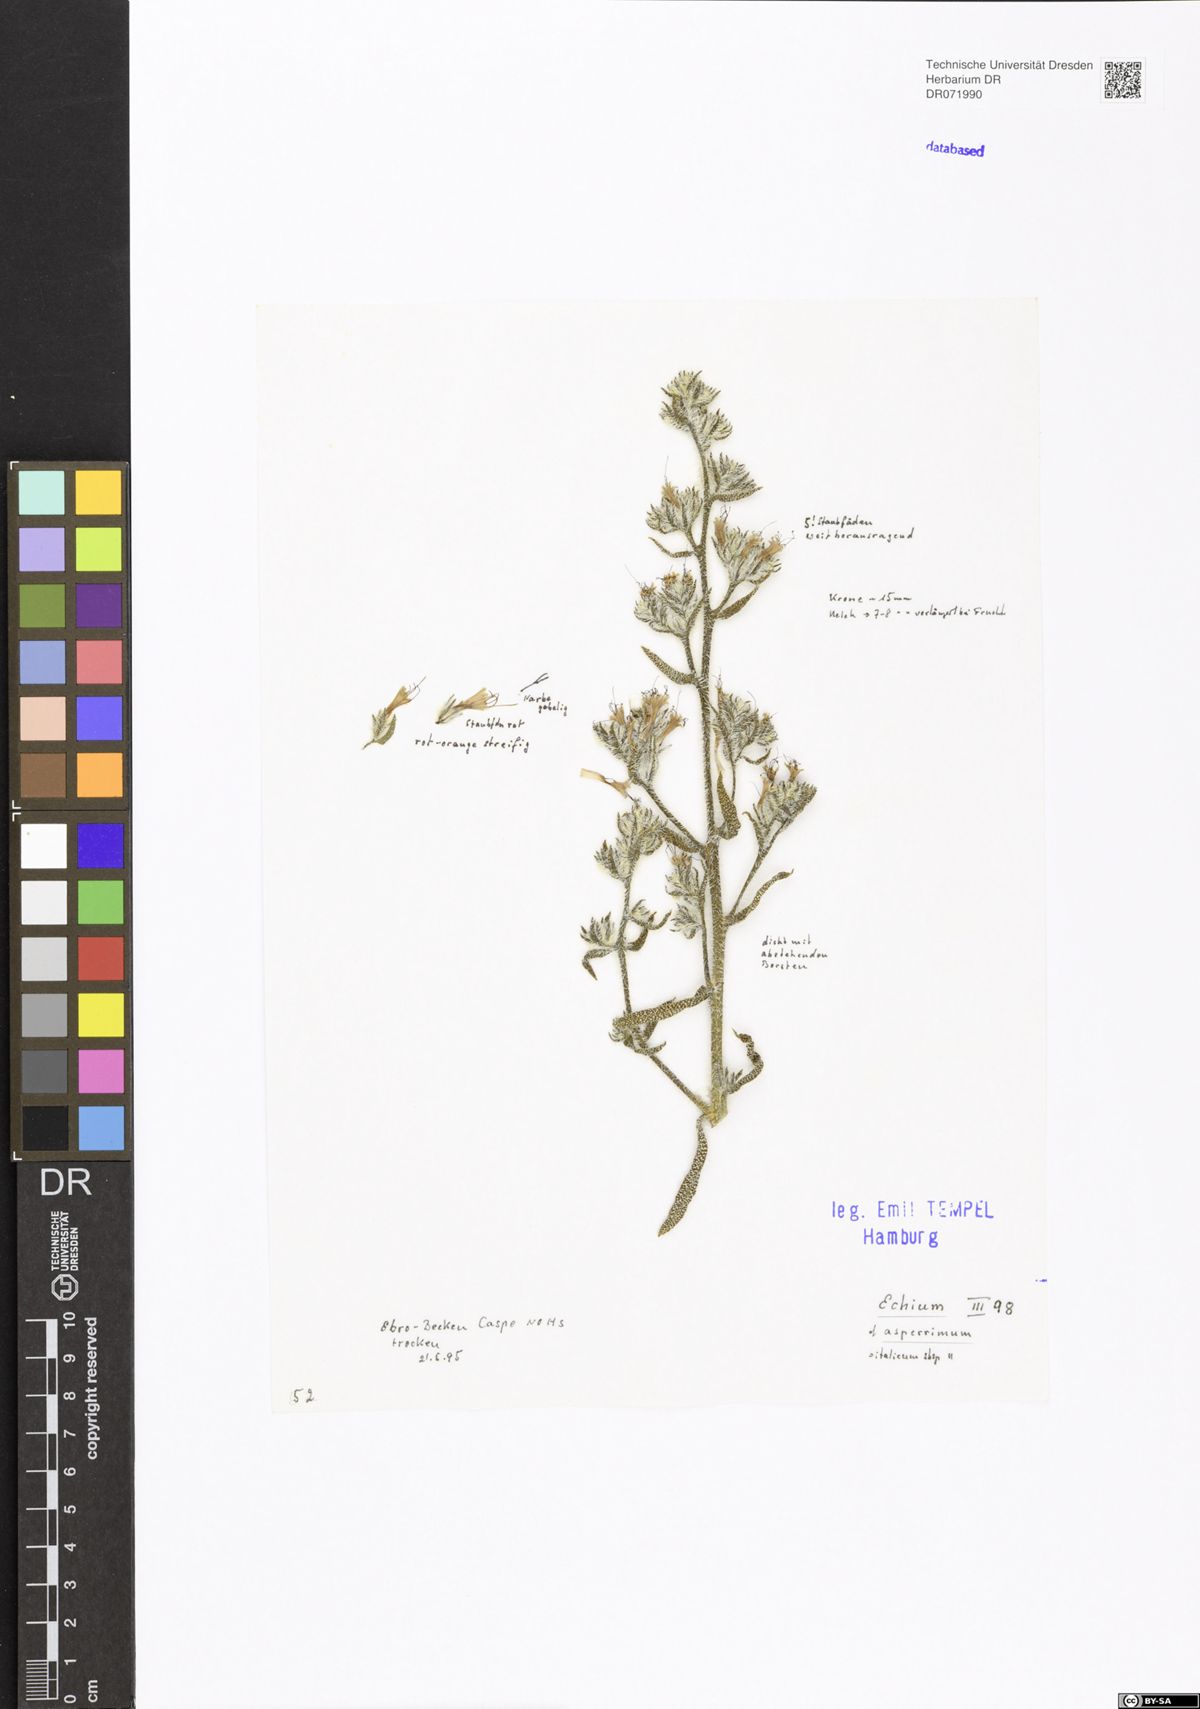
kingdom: Plantae
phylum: Tracheophyta
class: Magnoliopsida
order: Boraginales
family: Boraginaceae
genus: Echium
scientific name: Echium asperrimum
